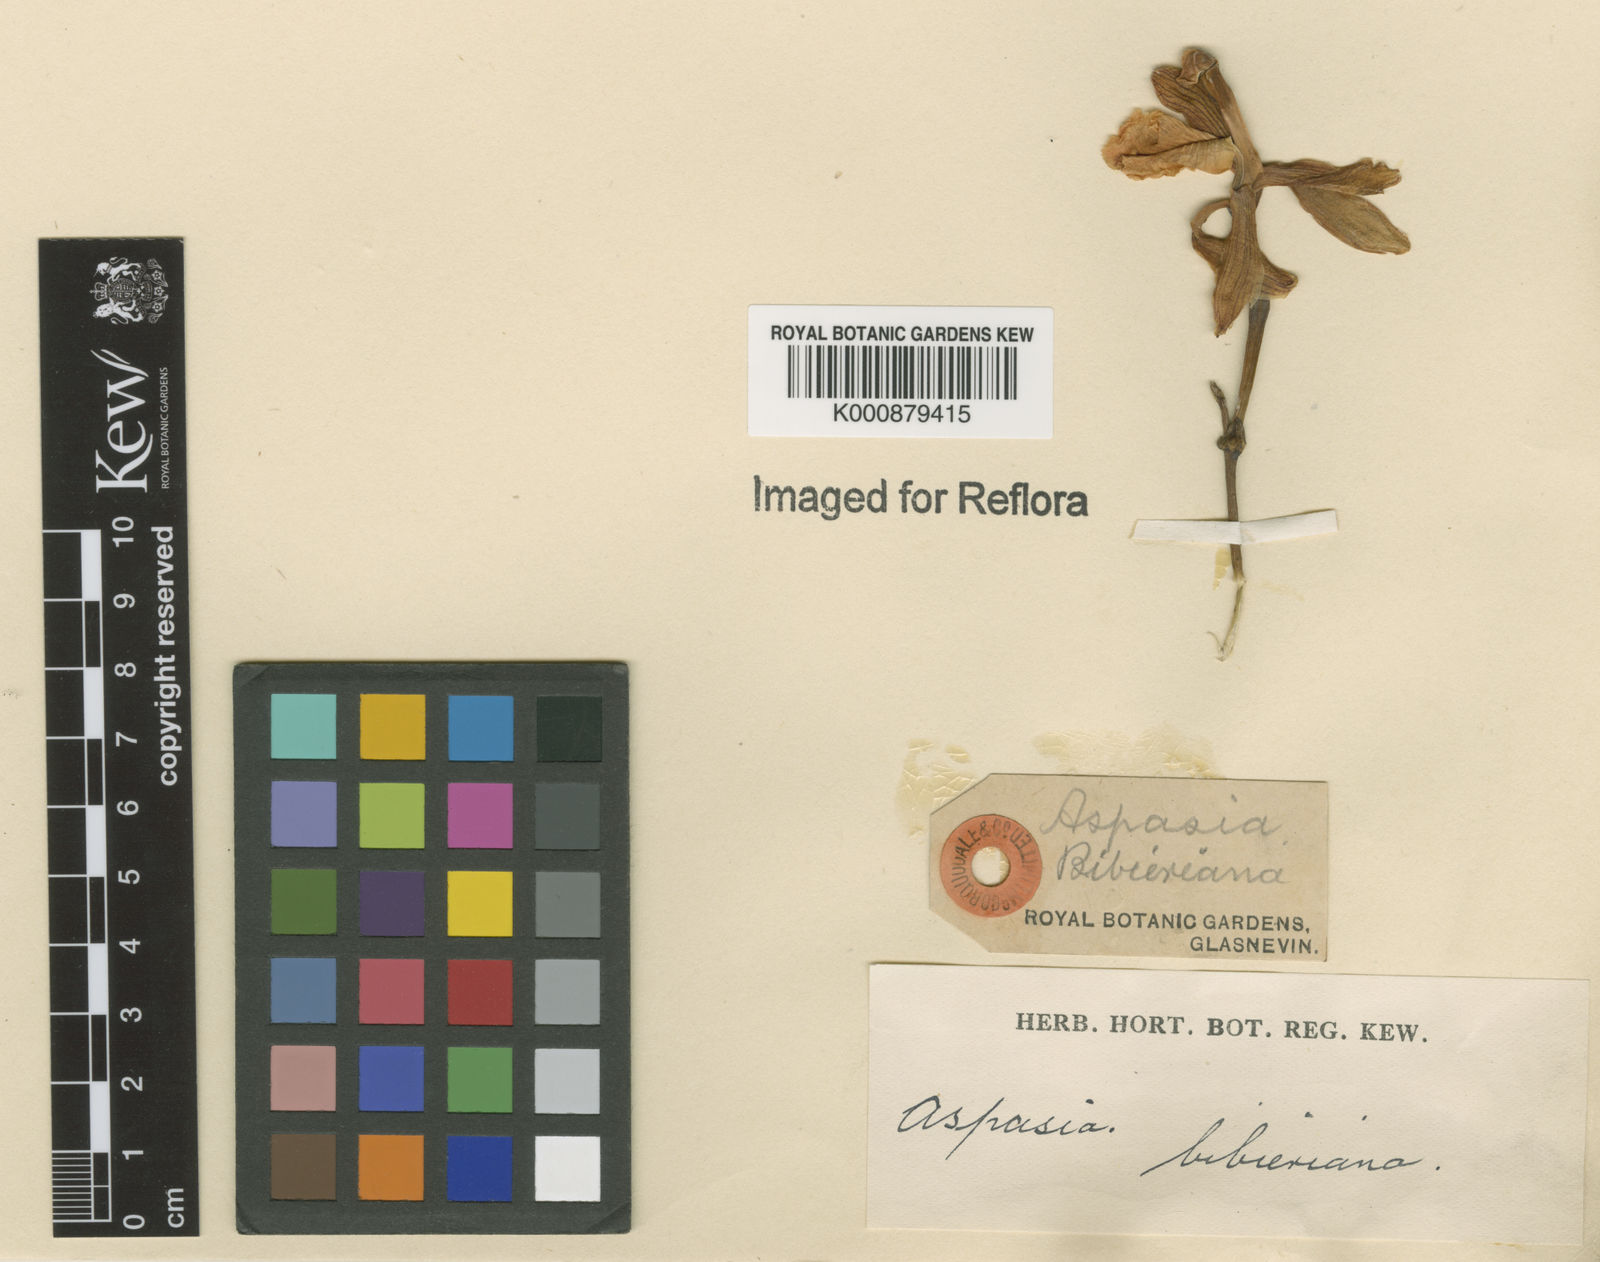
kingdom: Plantae
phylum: Tracheophyta
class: Liliopsida
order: Asparagales
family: Orchidaceae
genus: Aspasia
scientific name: Aspasia principissa
